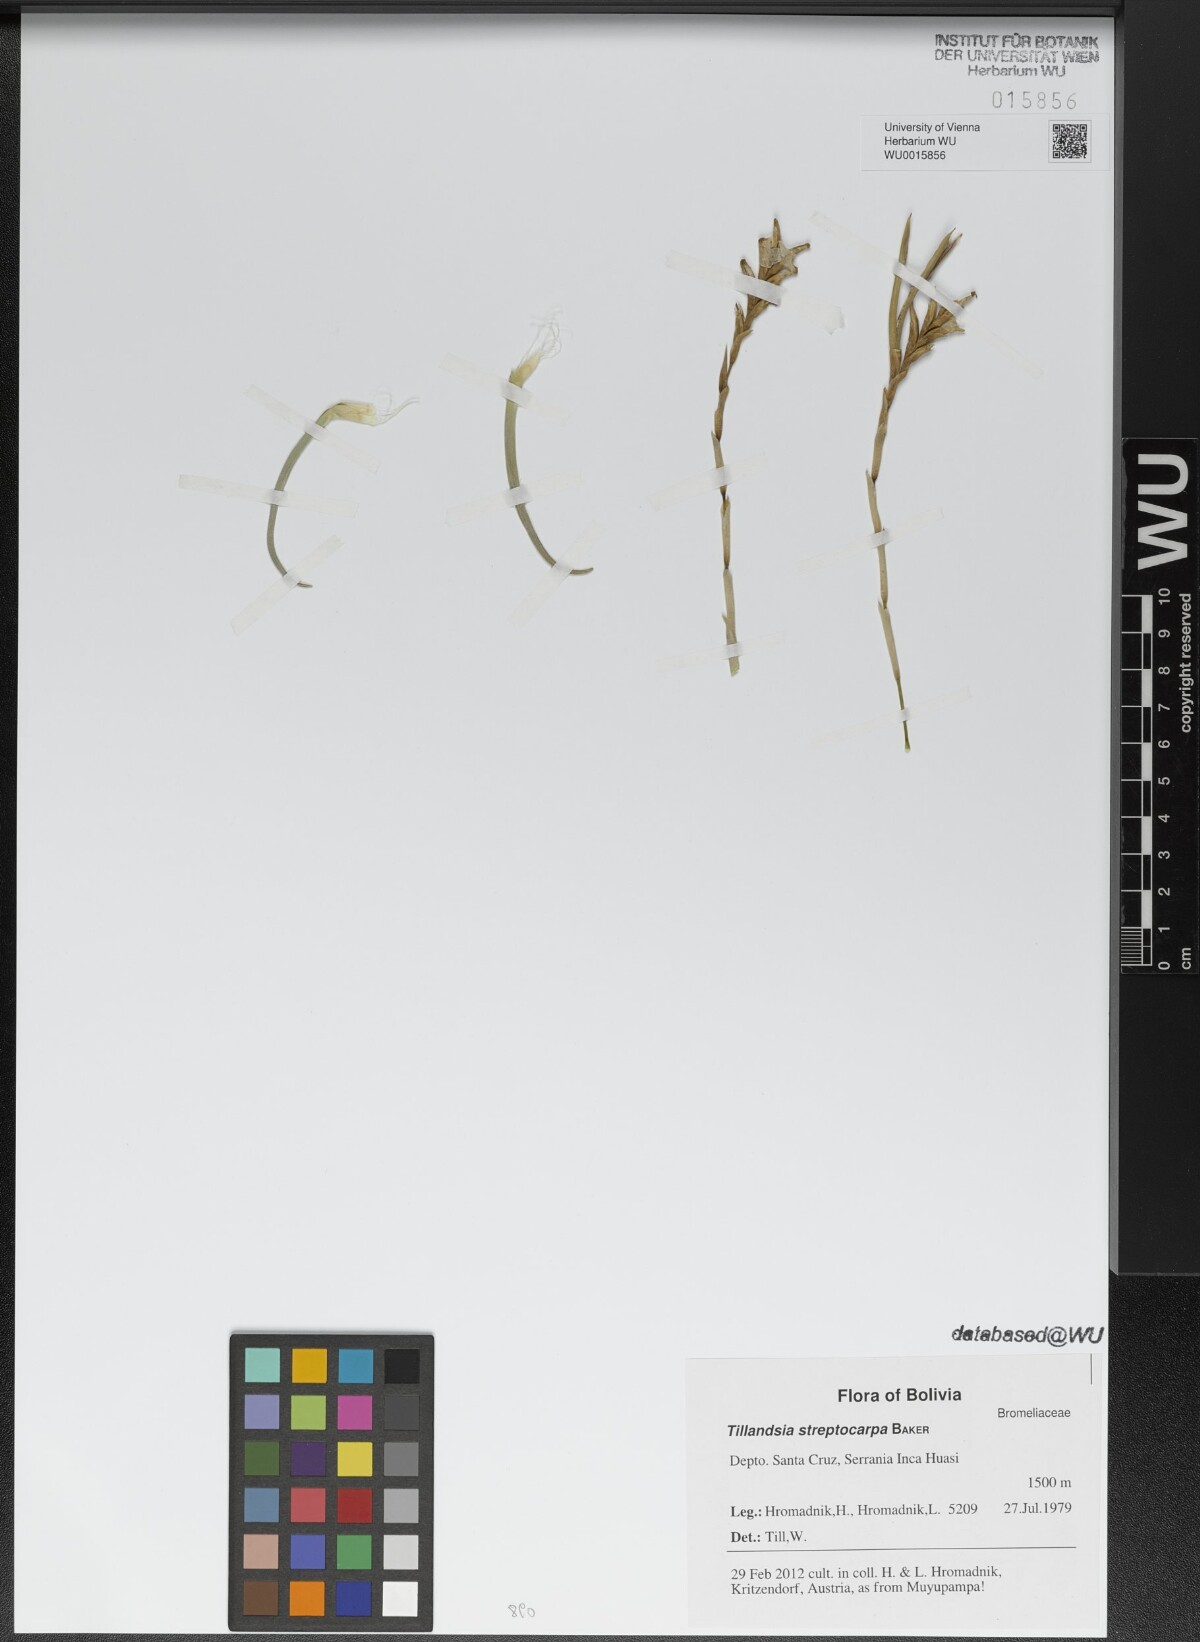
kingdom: Plantae
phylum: Tracheophyta
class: Liliopsida
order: Poales
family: Bromeliaceae
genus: Tillandsia
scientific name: Tillandsia streptocarpa
